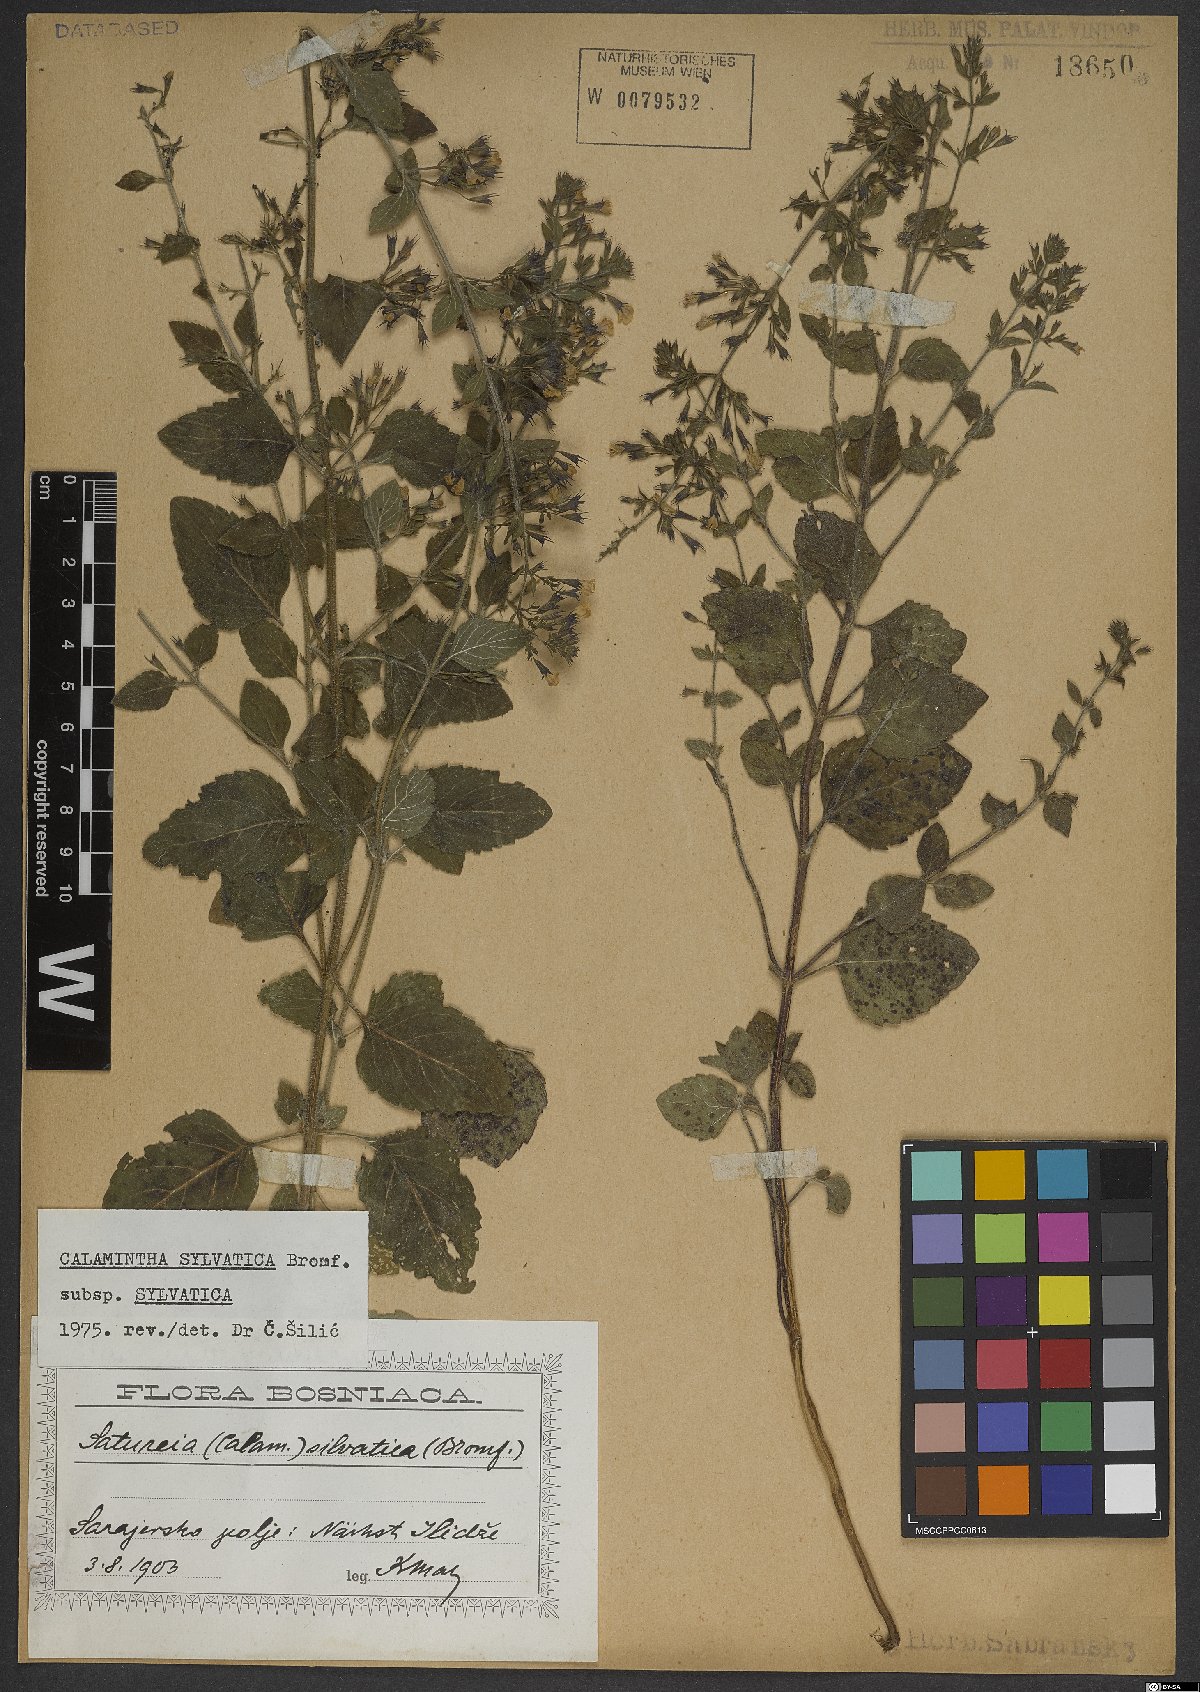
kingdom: Plantae
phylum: Tracheophyta
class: Magnoliopsida
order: Lamiales
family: Lamiaceae
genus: Clinopodium
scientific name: Clinopodium menthifolium
